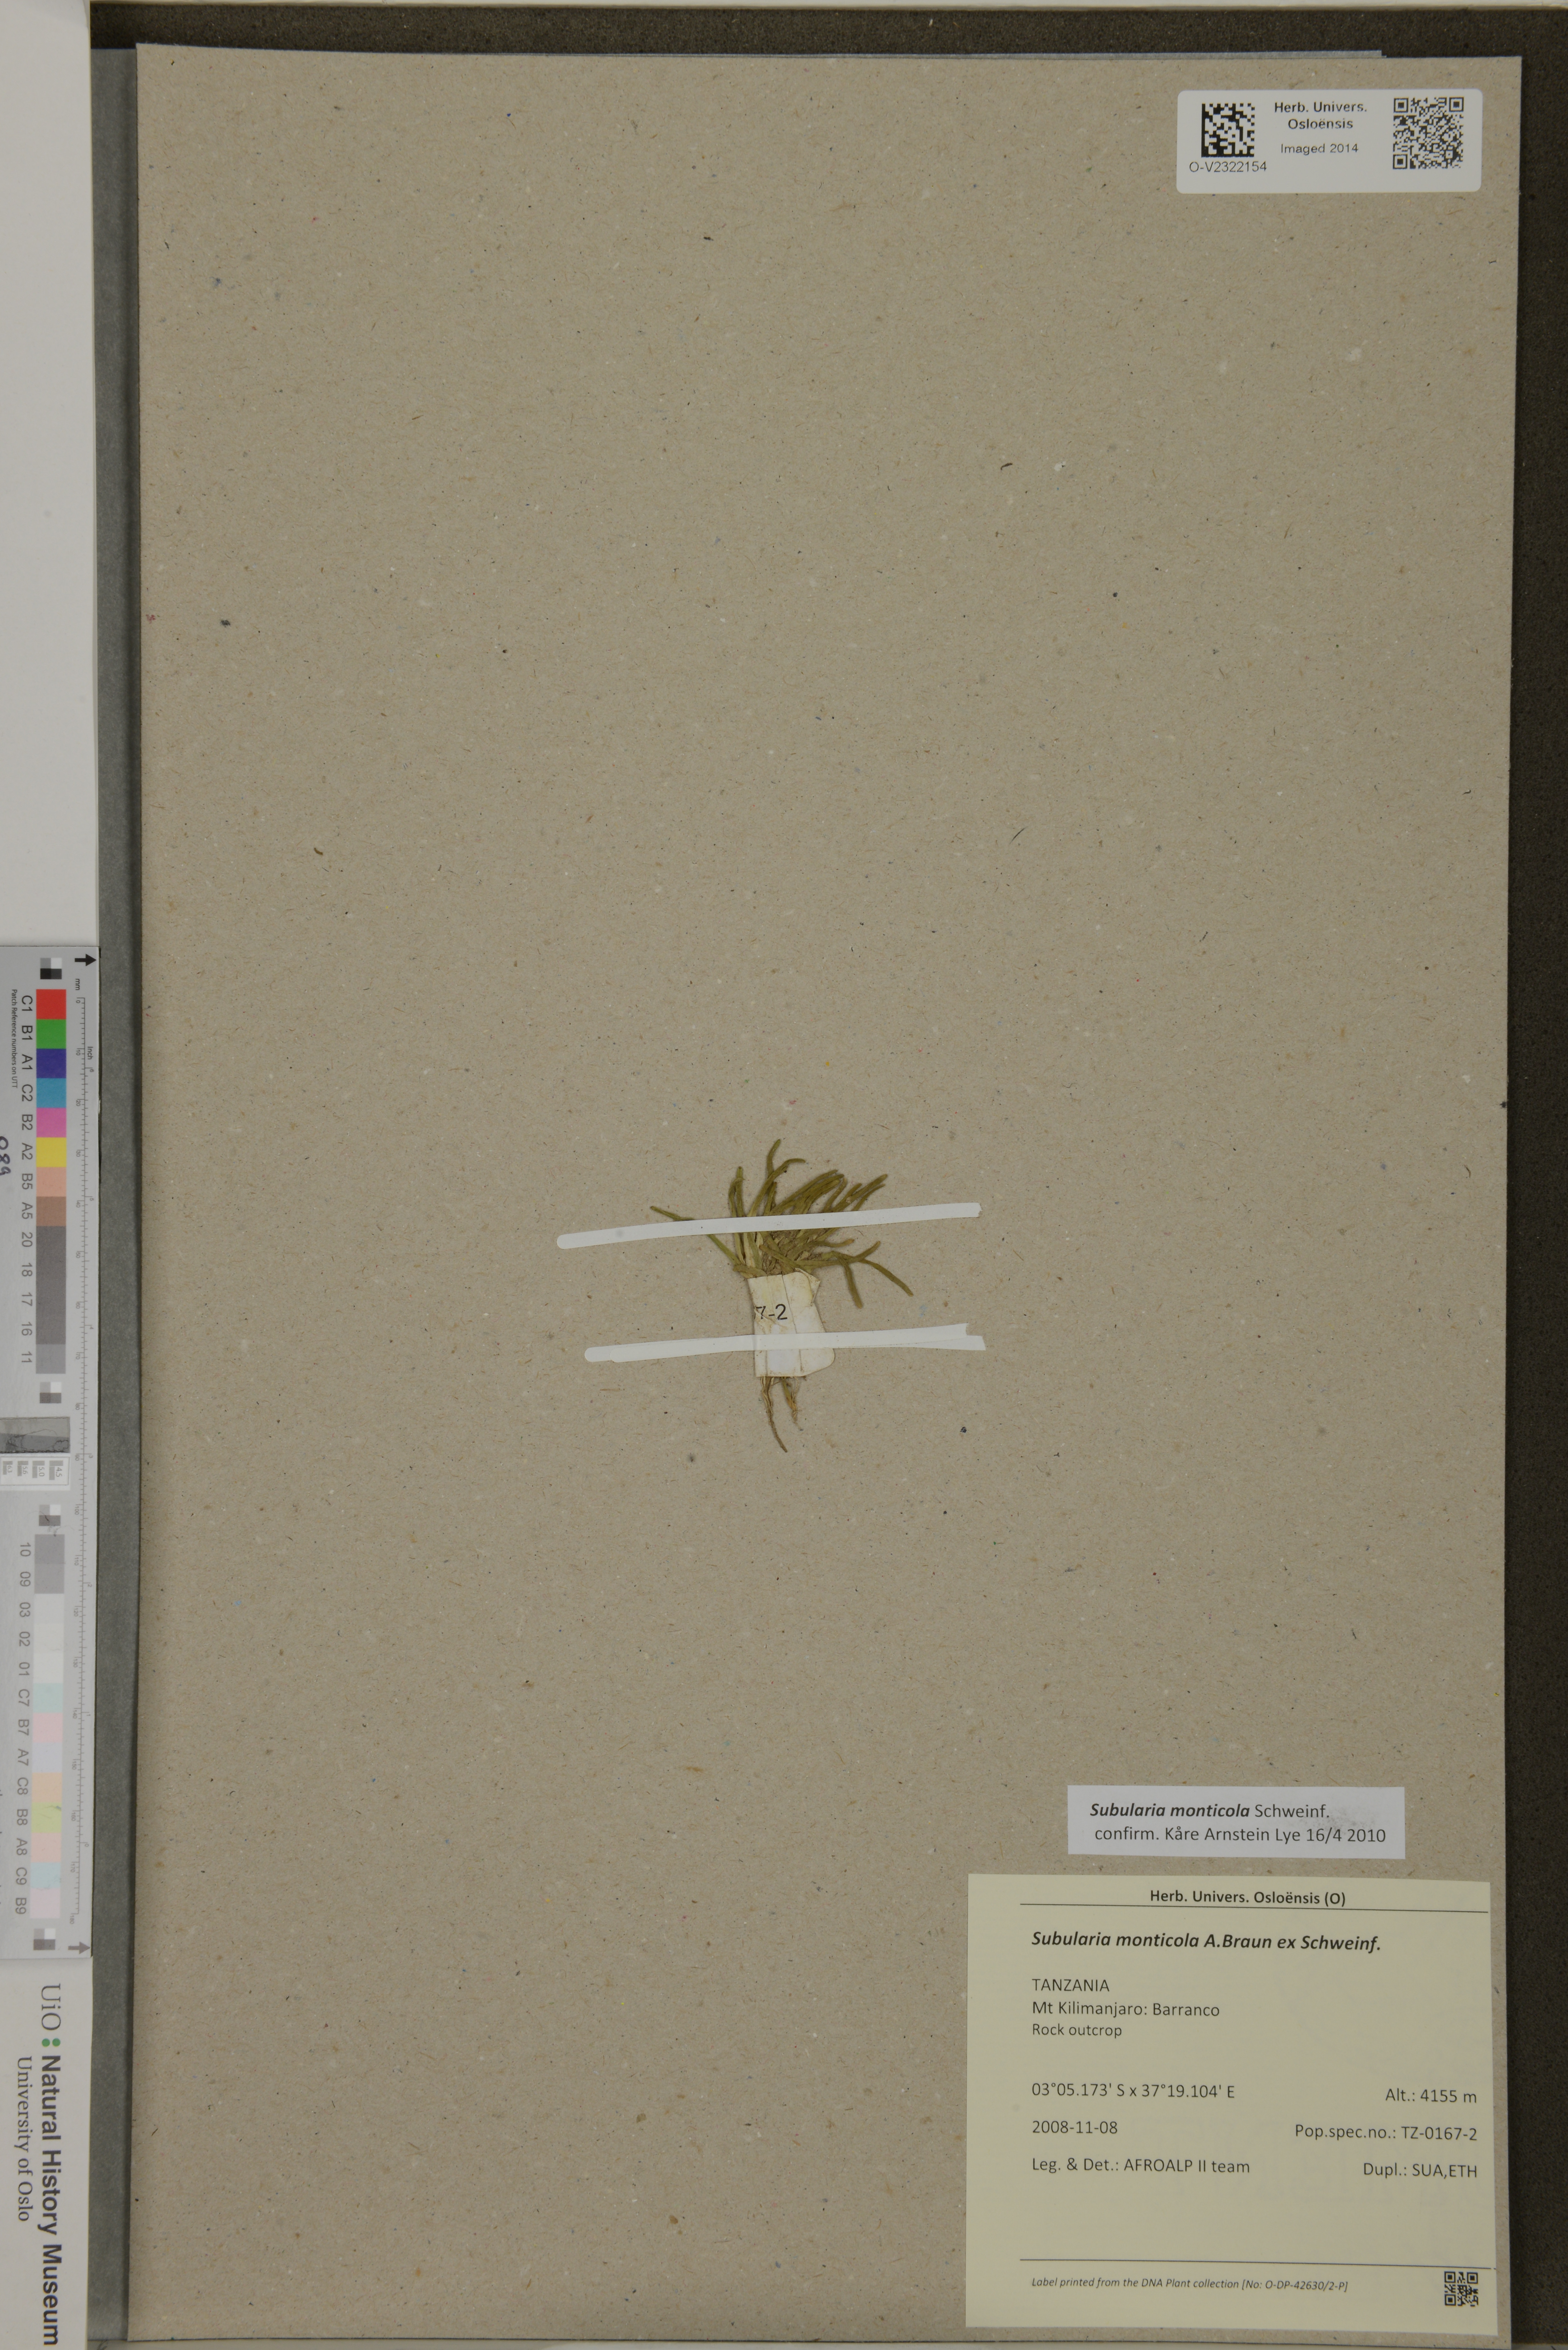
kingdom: Plantae
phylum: Tracheophyta
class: Magnoliopsida
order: Brassicales
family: Brassicaceae
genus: Subularia
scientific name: Subularia monticola
